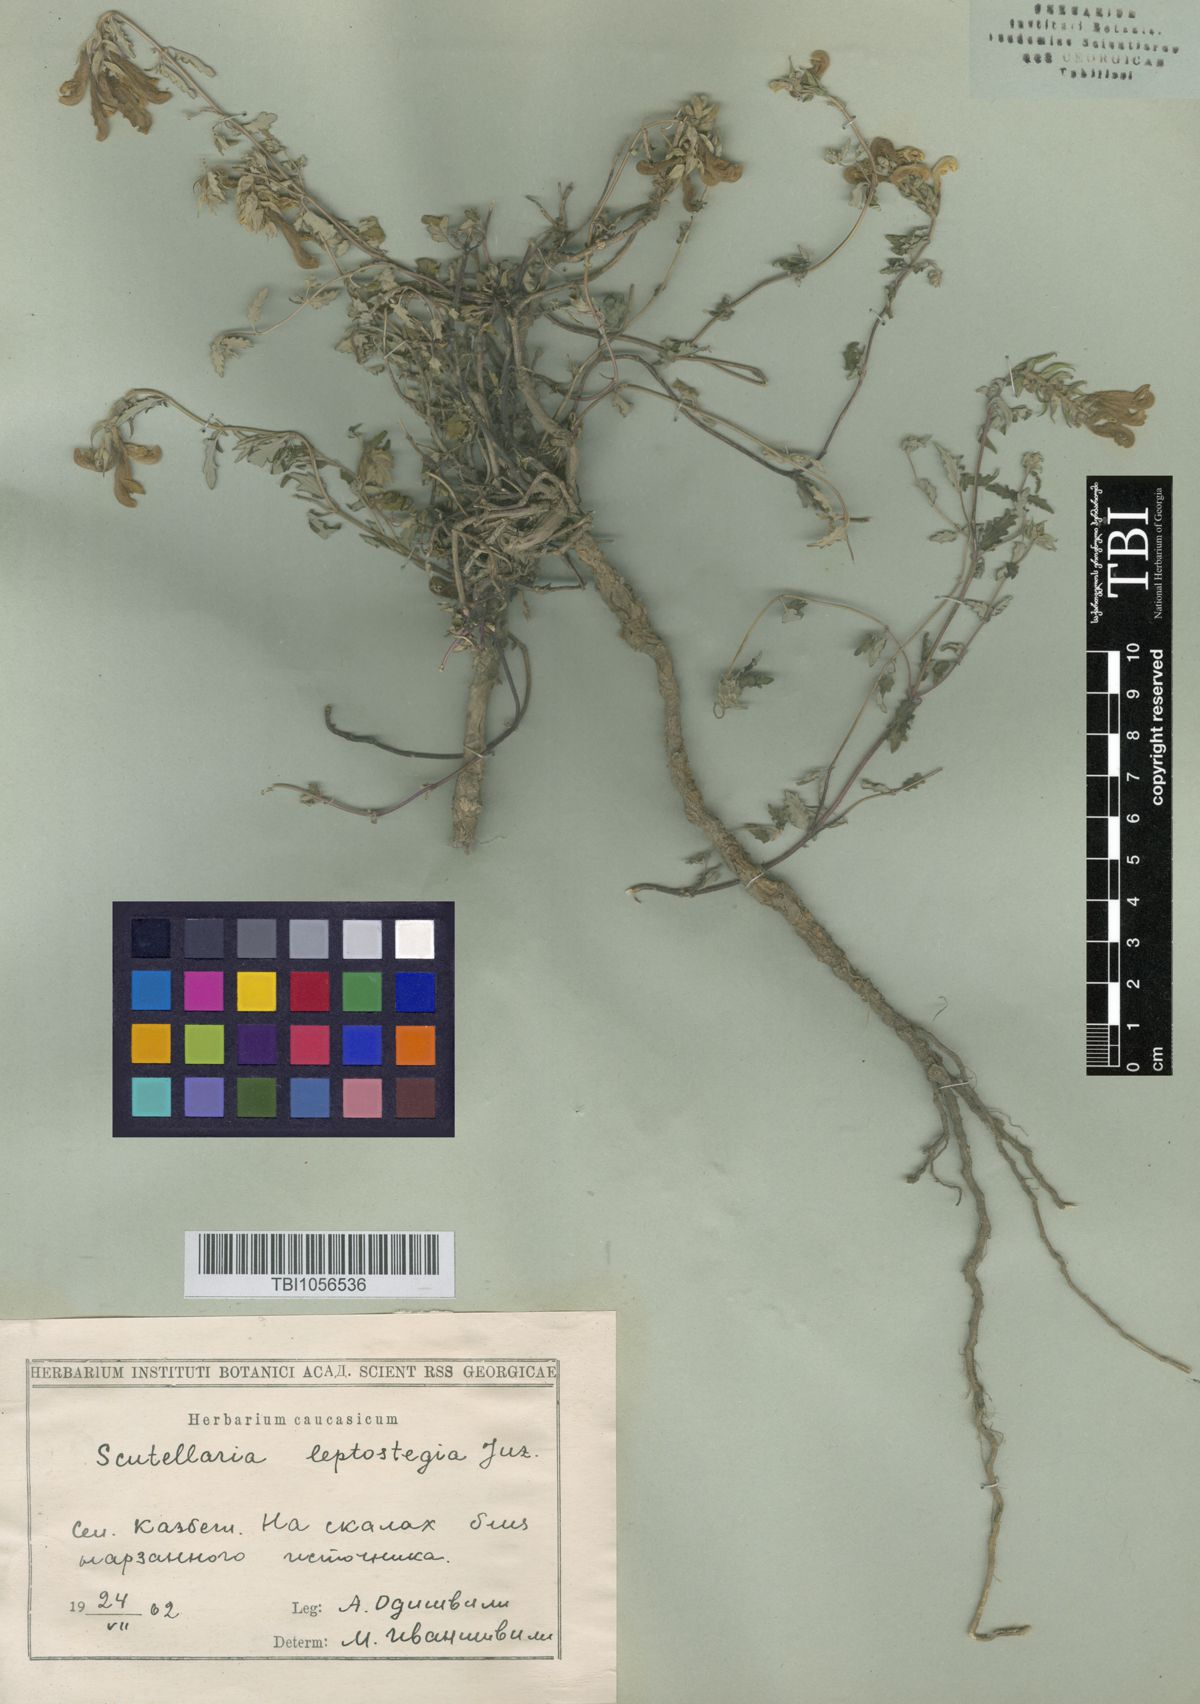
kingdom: Plantae
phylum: Tracheophyta
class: Magnoliopsida
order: Lamiales
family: Lamiaceae
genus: Scutellaria
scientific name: Scutellaria leptostegia
